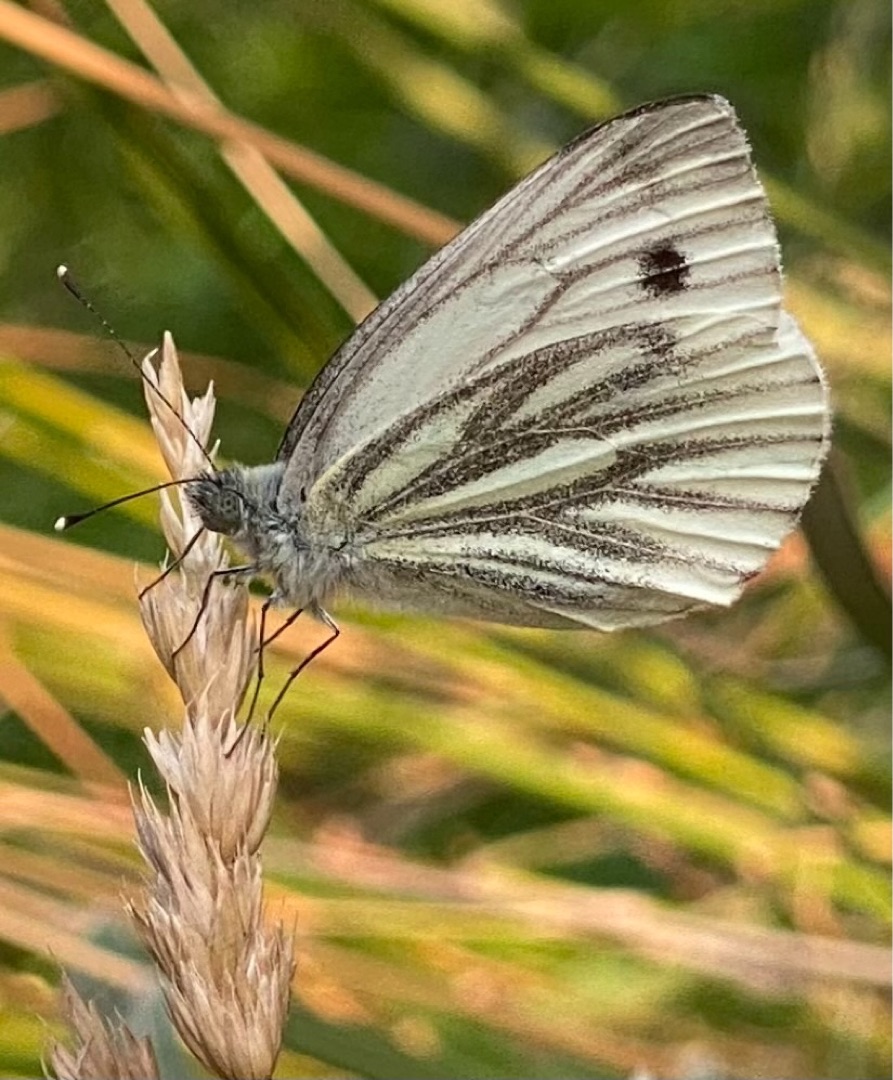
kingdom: Animalia
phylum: Arthropoda
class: Insecta
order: Lepidoptera
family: Pieridae
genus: Pieris
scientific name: Pieris napi
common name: Grønåret kålsommerfugl
